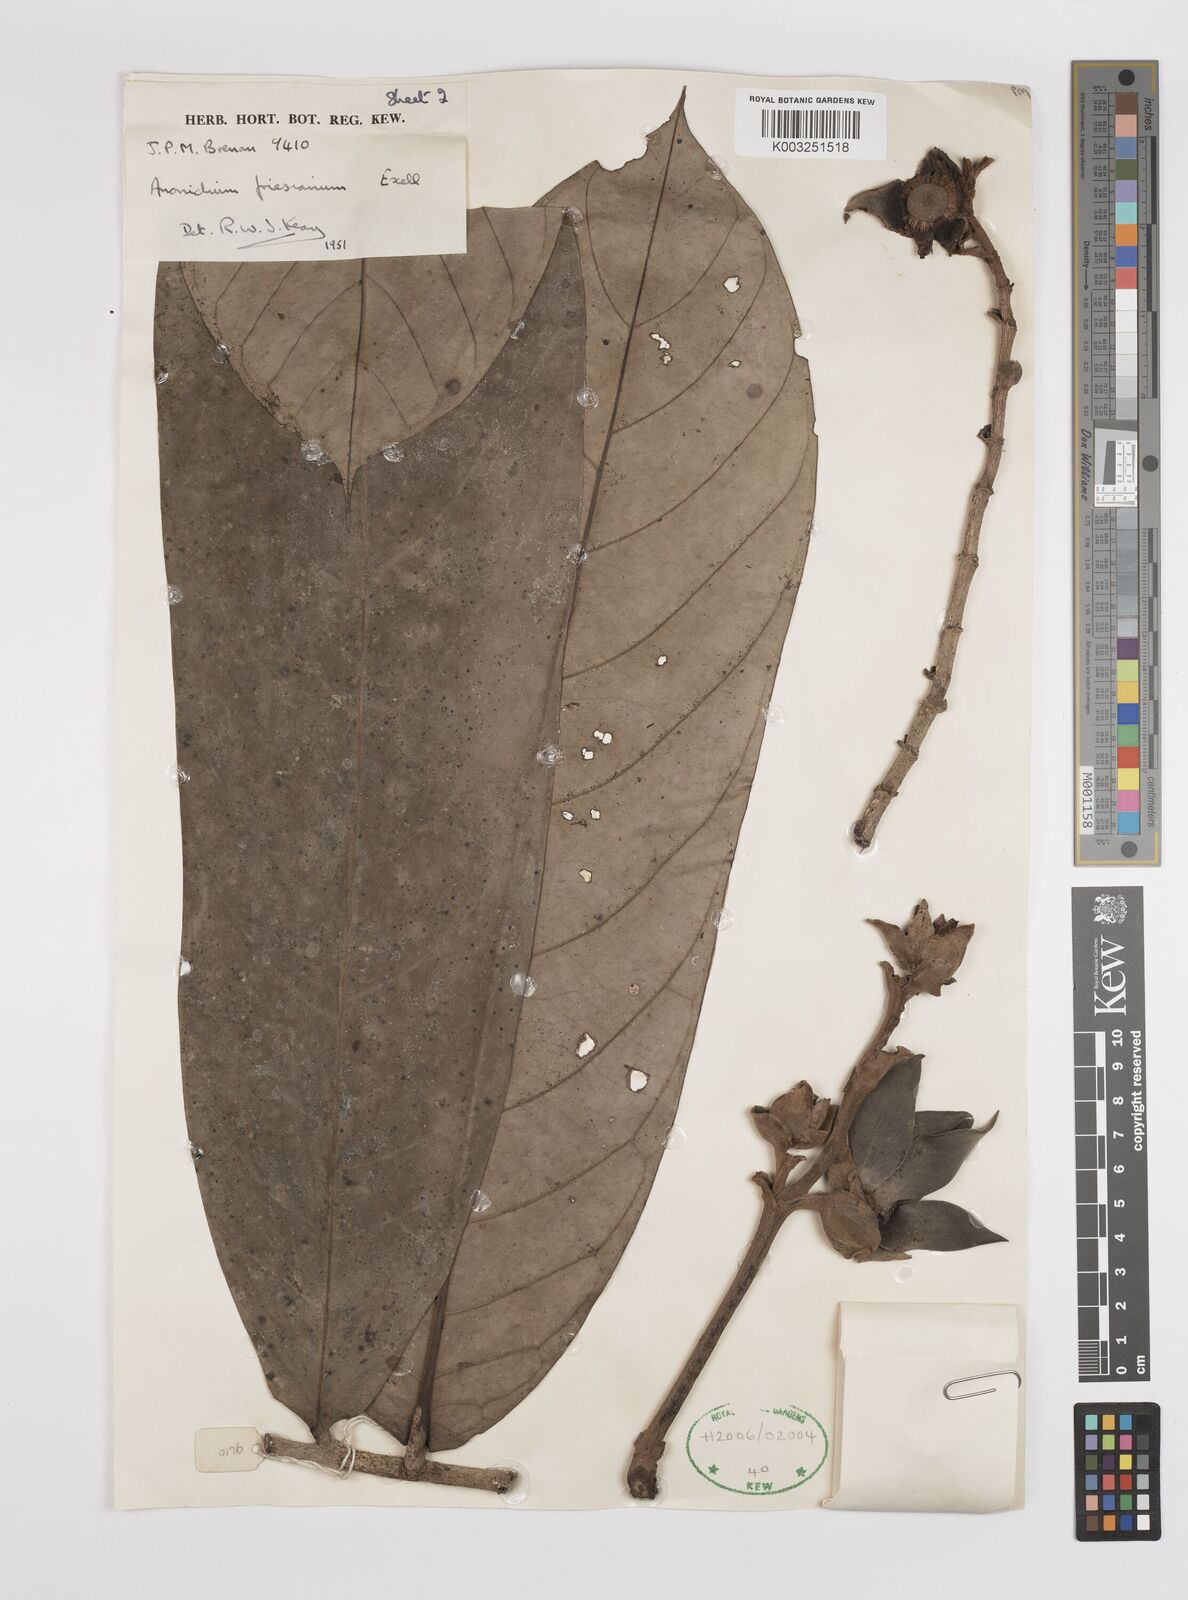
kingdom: Plantae
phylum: Tracheophyta
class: Magnoliopsida
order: Magnoliales
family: Annonaceae
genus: Anonidium
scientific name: Anonidium mannii
